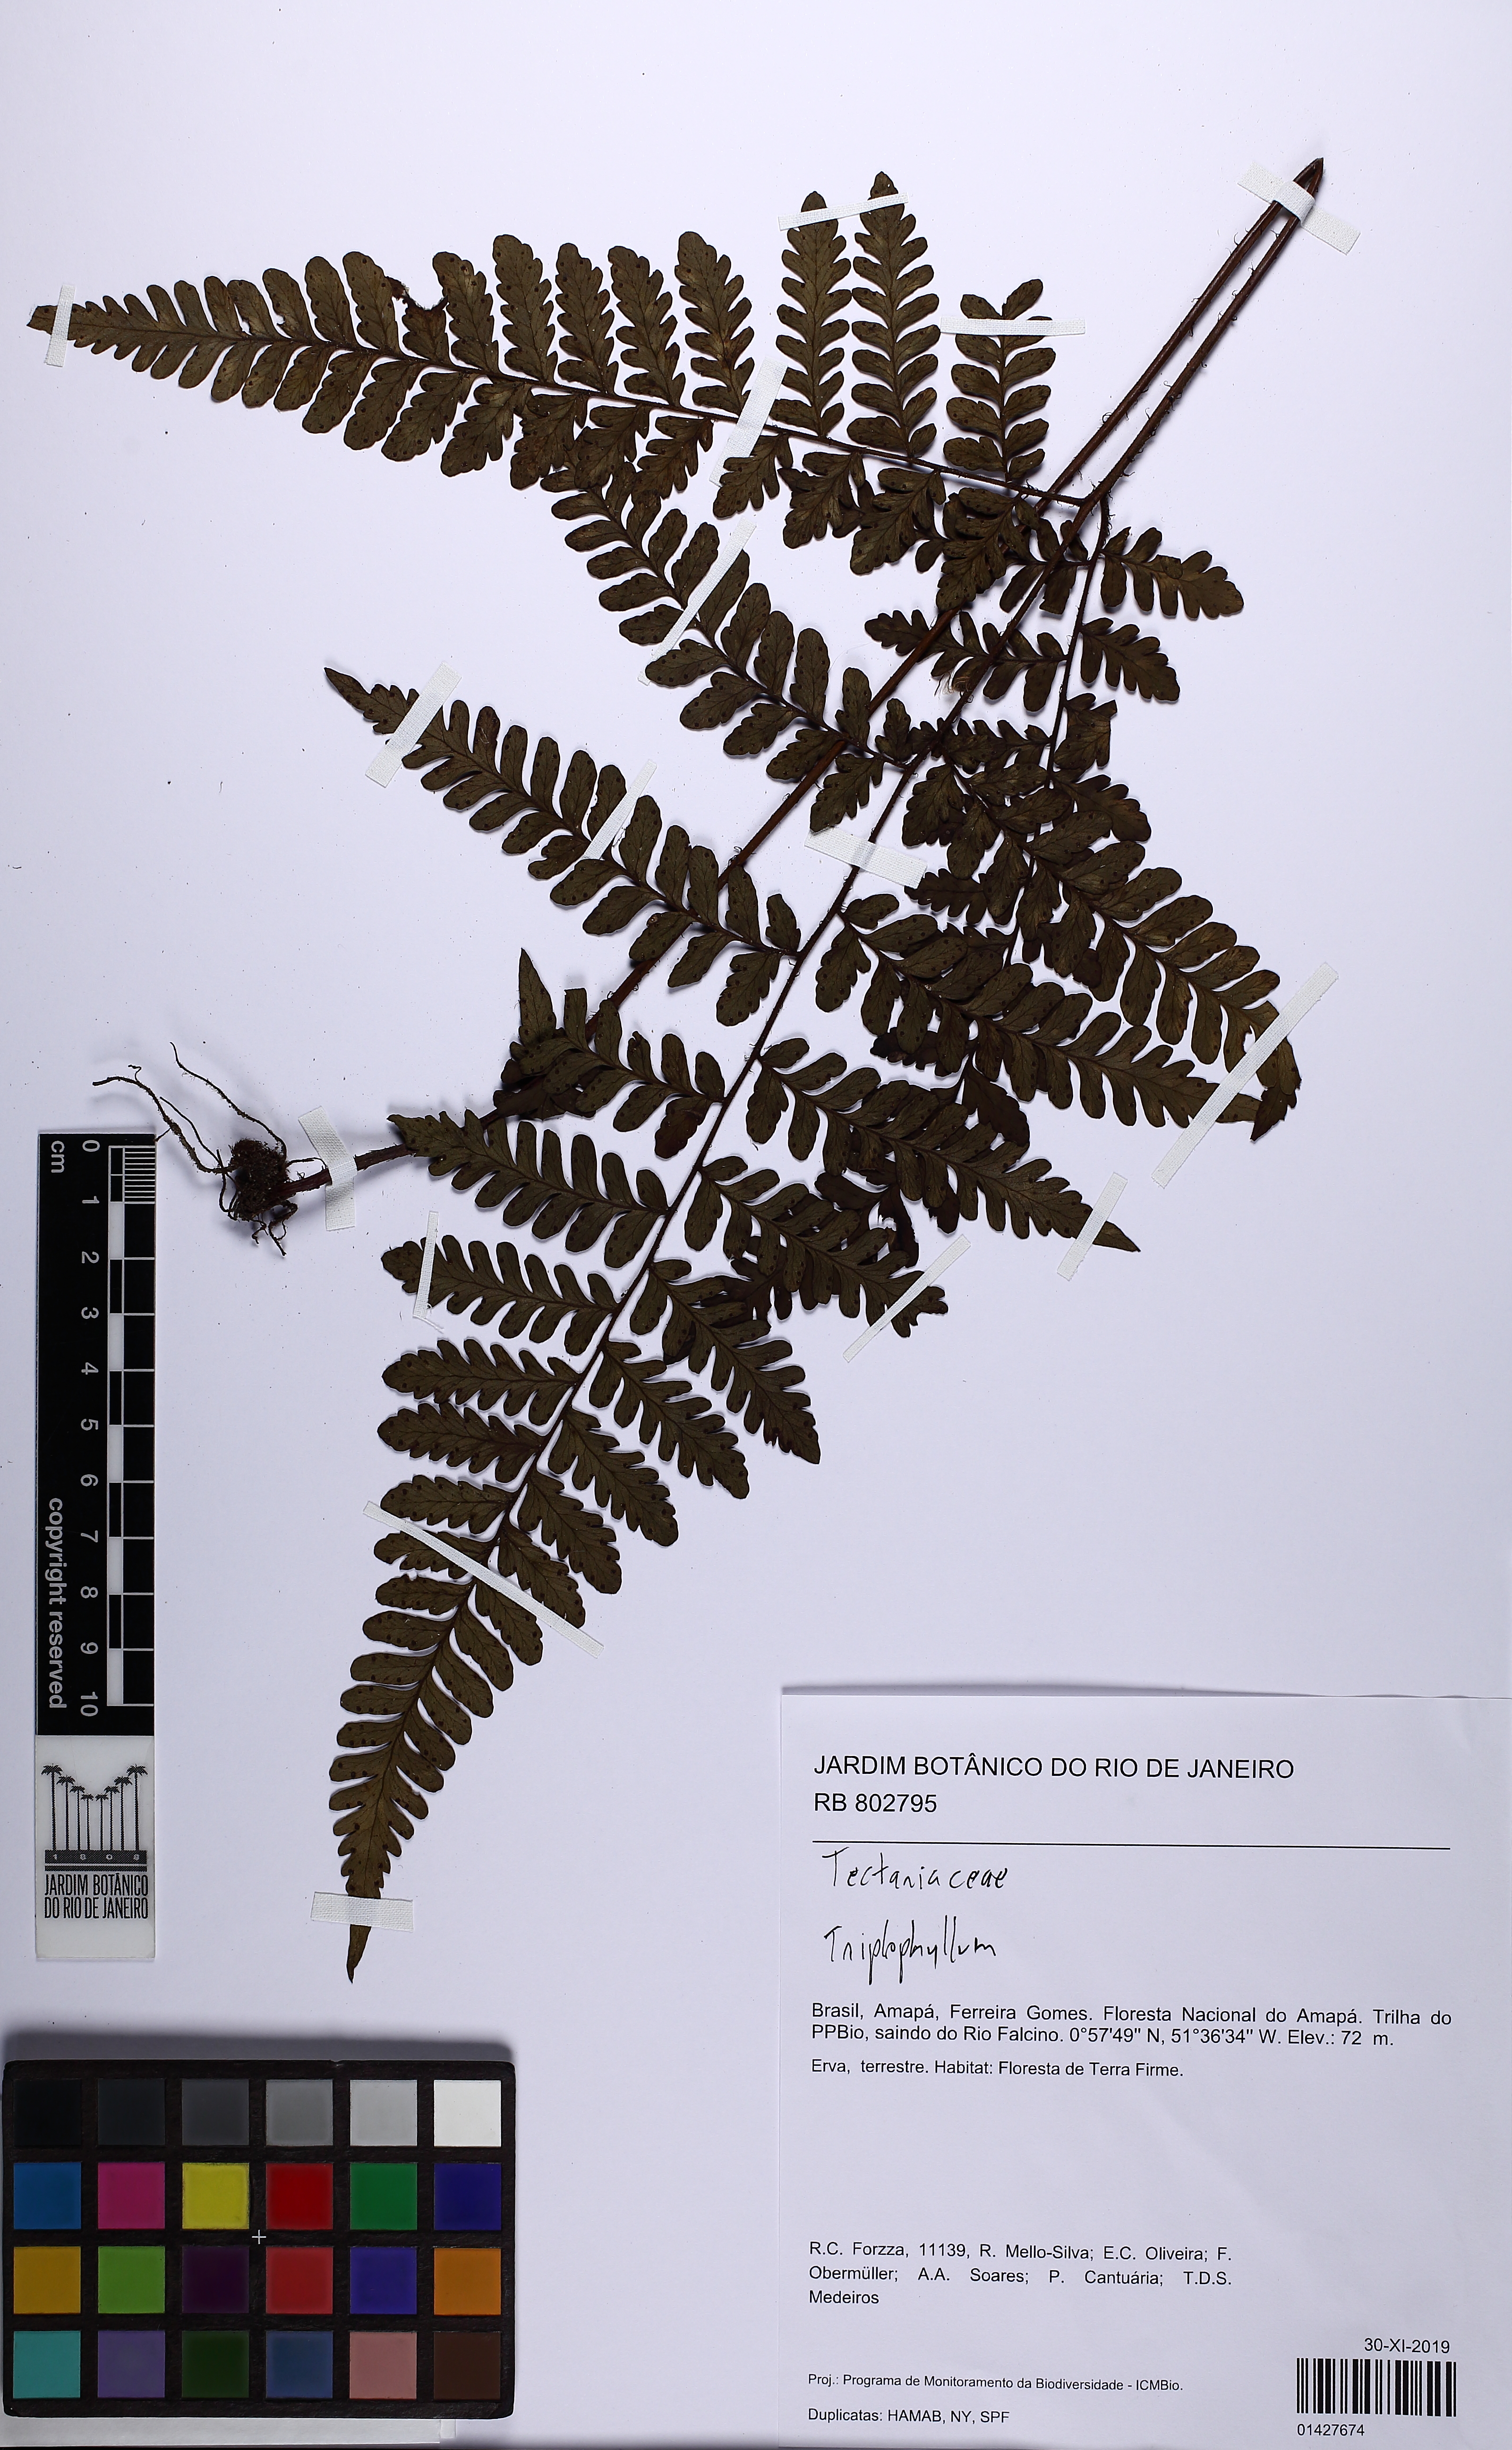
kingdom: Plantae
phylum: Tracheophyta
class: Polypodiopsida
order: Polypodiales
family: Tectariaceae
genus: Triplophyllum
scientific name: Triplophyllum hirsutum
